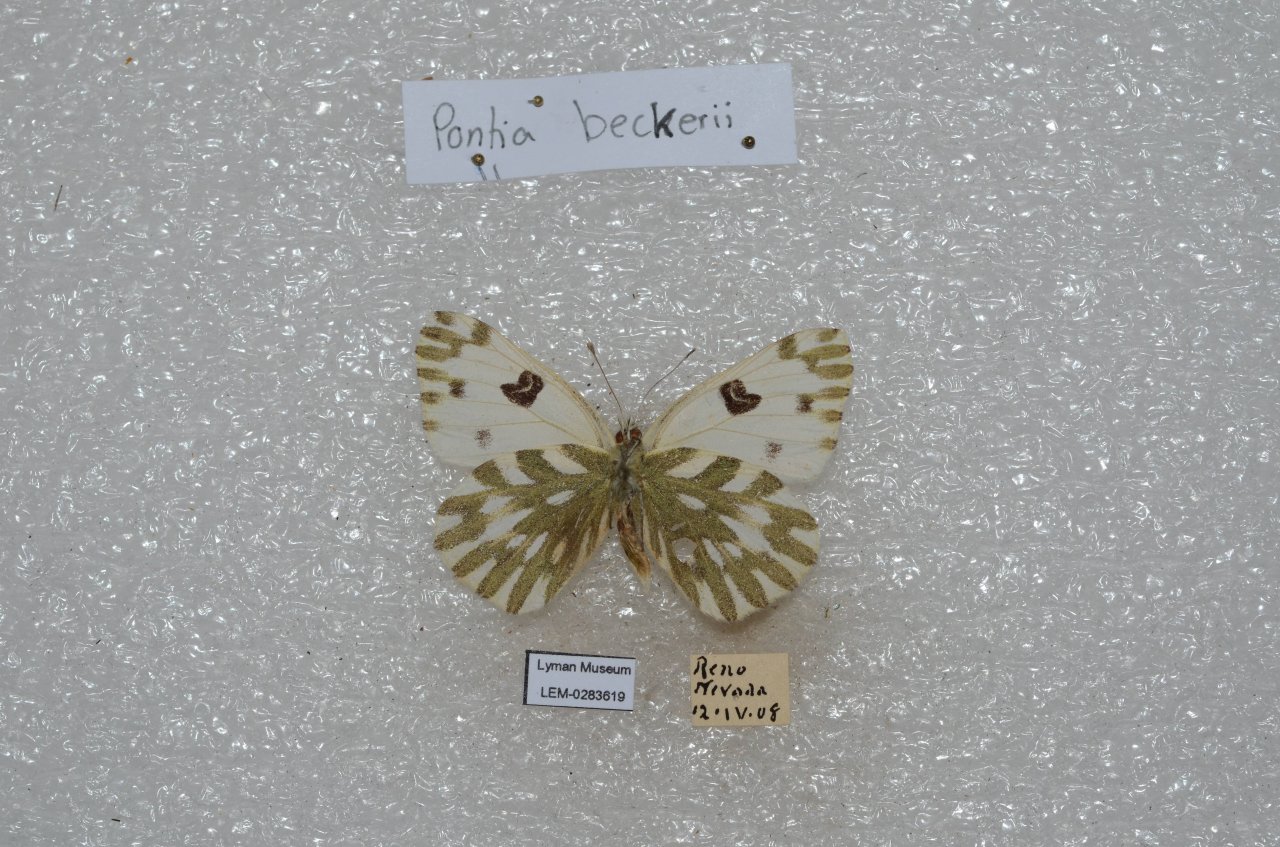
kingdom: Animalia
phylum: Arthropoda
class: Insecta
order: Lepidoptera
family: Pieridae
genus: Pontia
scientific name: Pontia beckerii
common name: Becker's White
